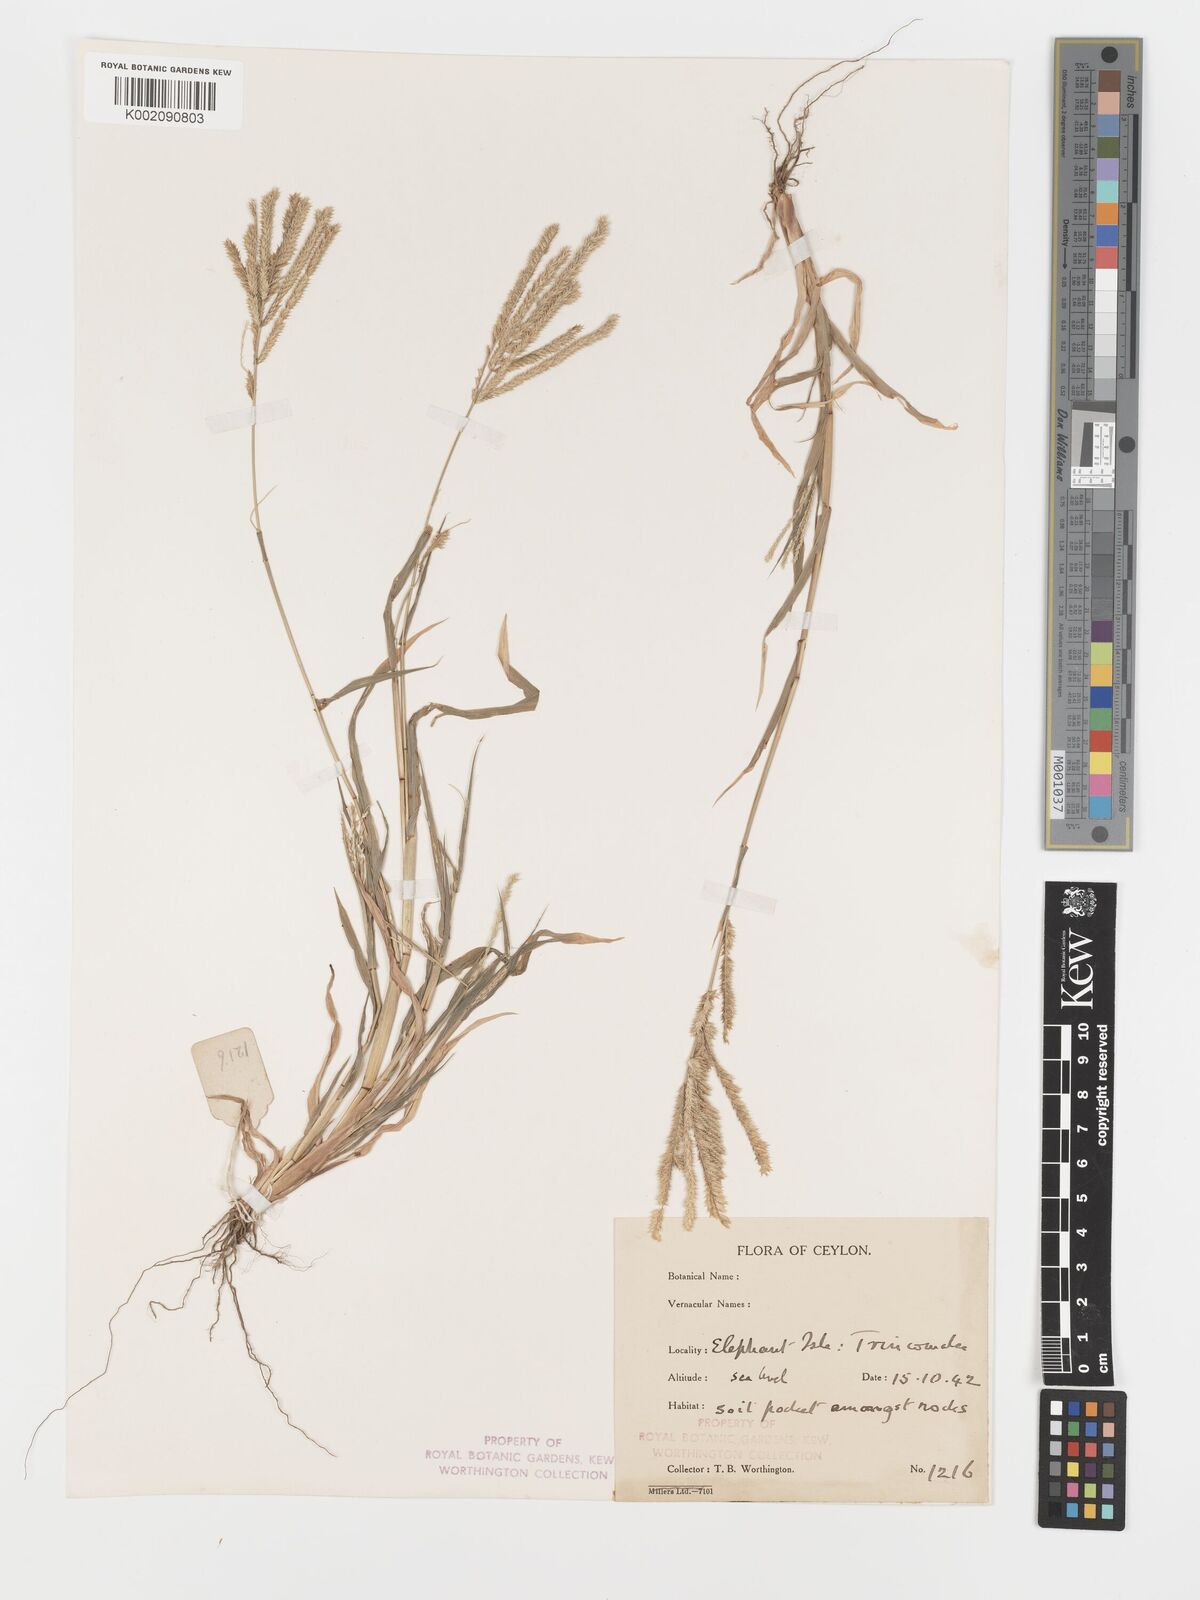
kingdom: Plantae
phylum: Tracheophyta
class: Liliopsida
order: Poales
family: Poaceae
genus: Acrachne
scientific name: Acrachne racemosa
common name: Goosegrass
